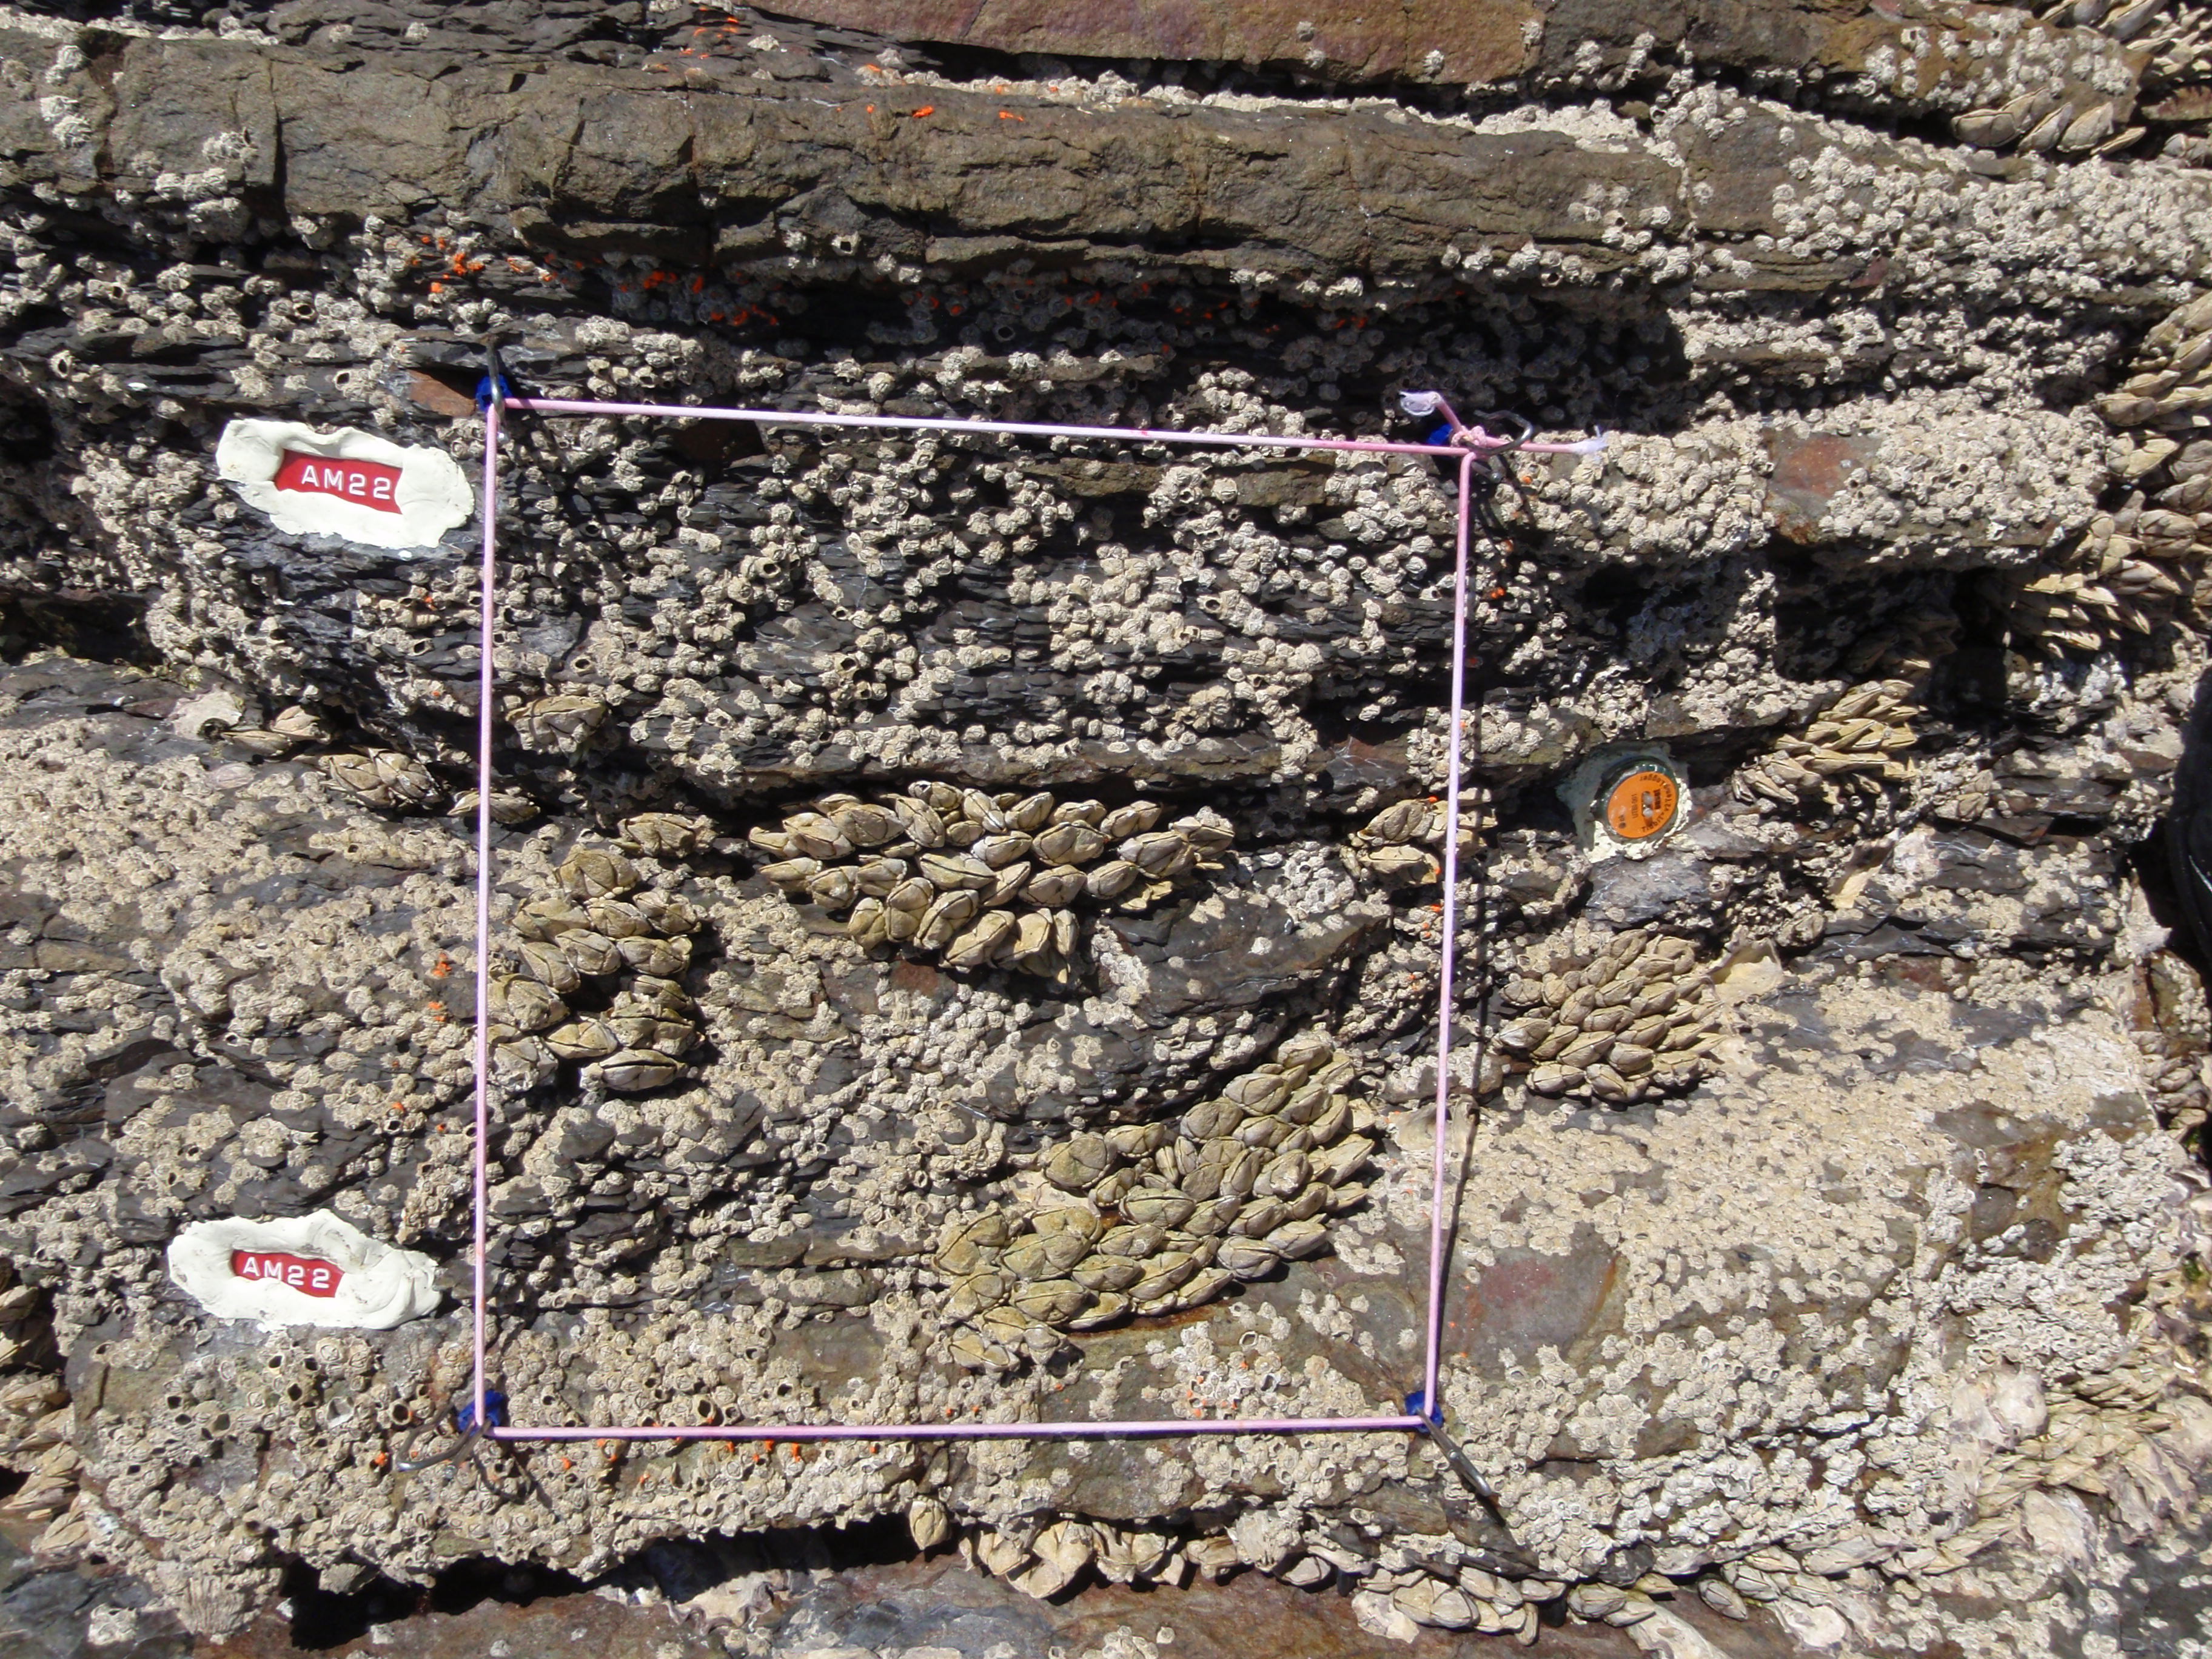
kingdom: Animalia
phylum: Arthropoda
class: Maxillopoda
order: Sessilia
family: Chthamalidae
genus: Chthamalus
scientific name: Chthamalus challengeri
